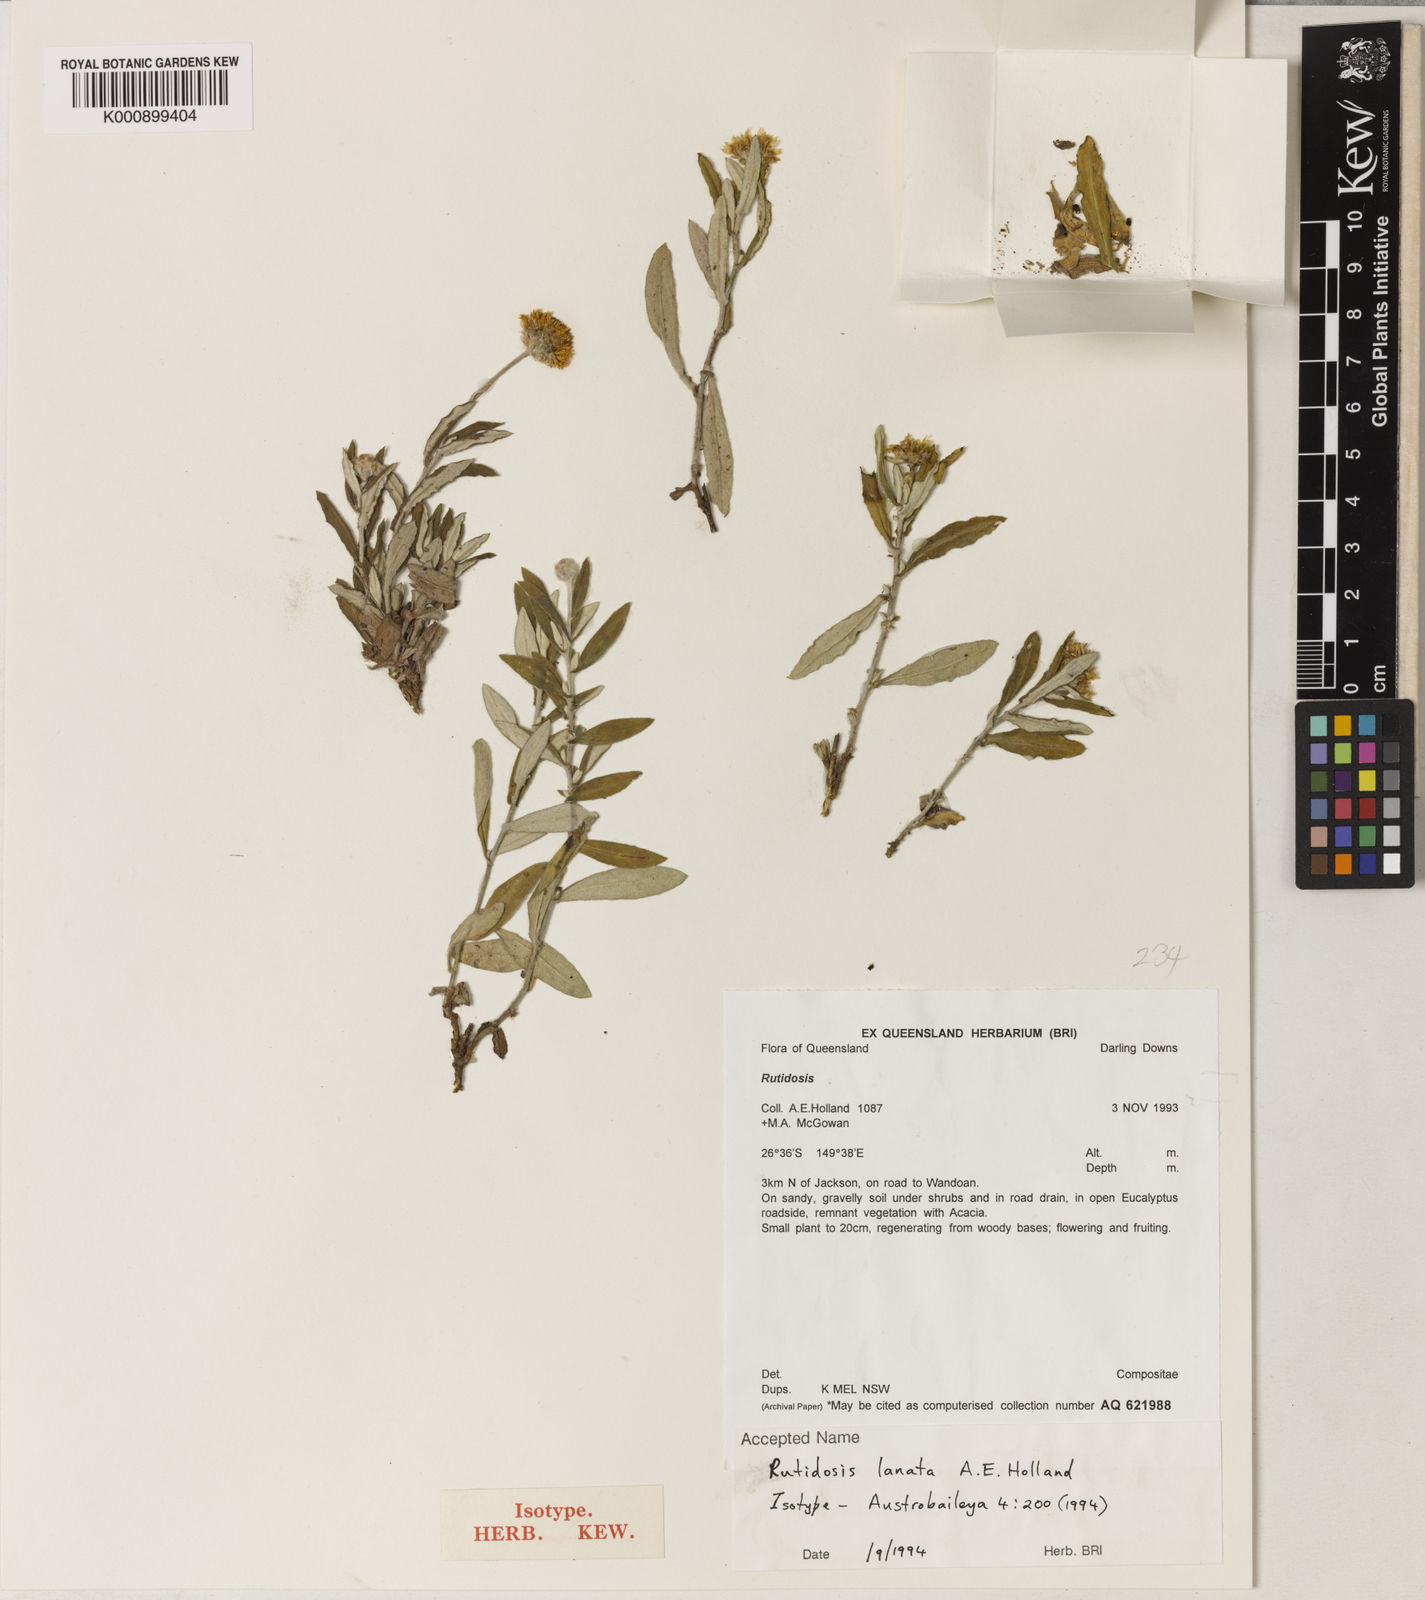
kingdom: Plantae
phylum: Tracheophyta
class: Magnoliopsida
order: Asterales
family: Asteraceae
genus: Rutidosis
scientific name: Rutidosis lanata
